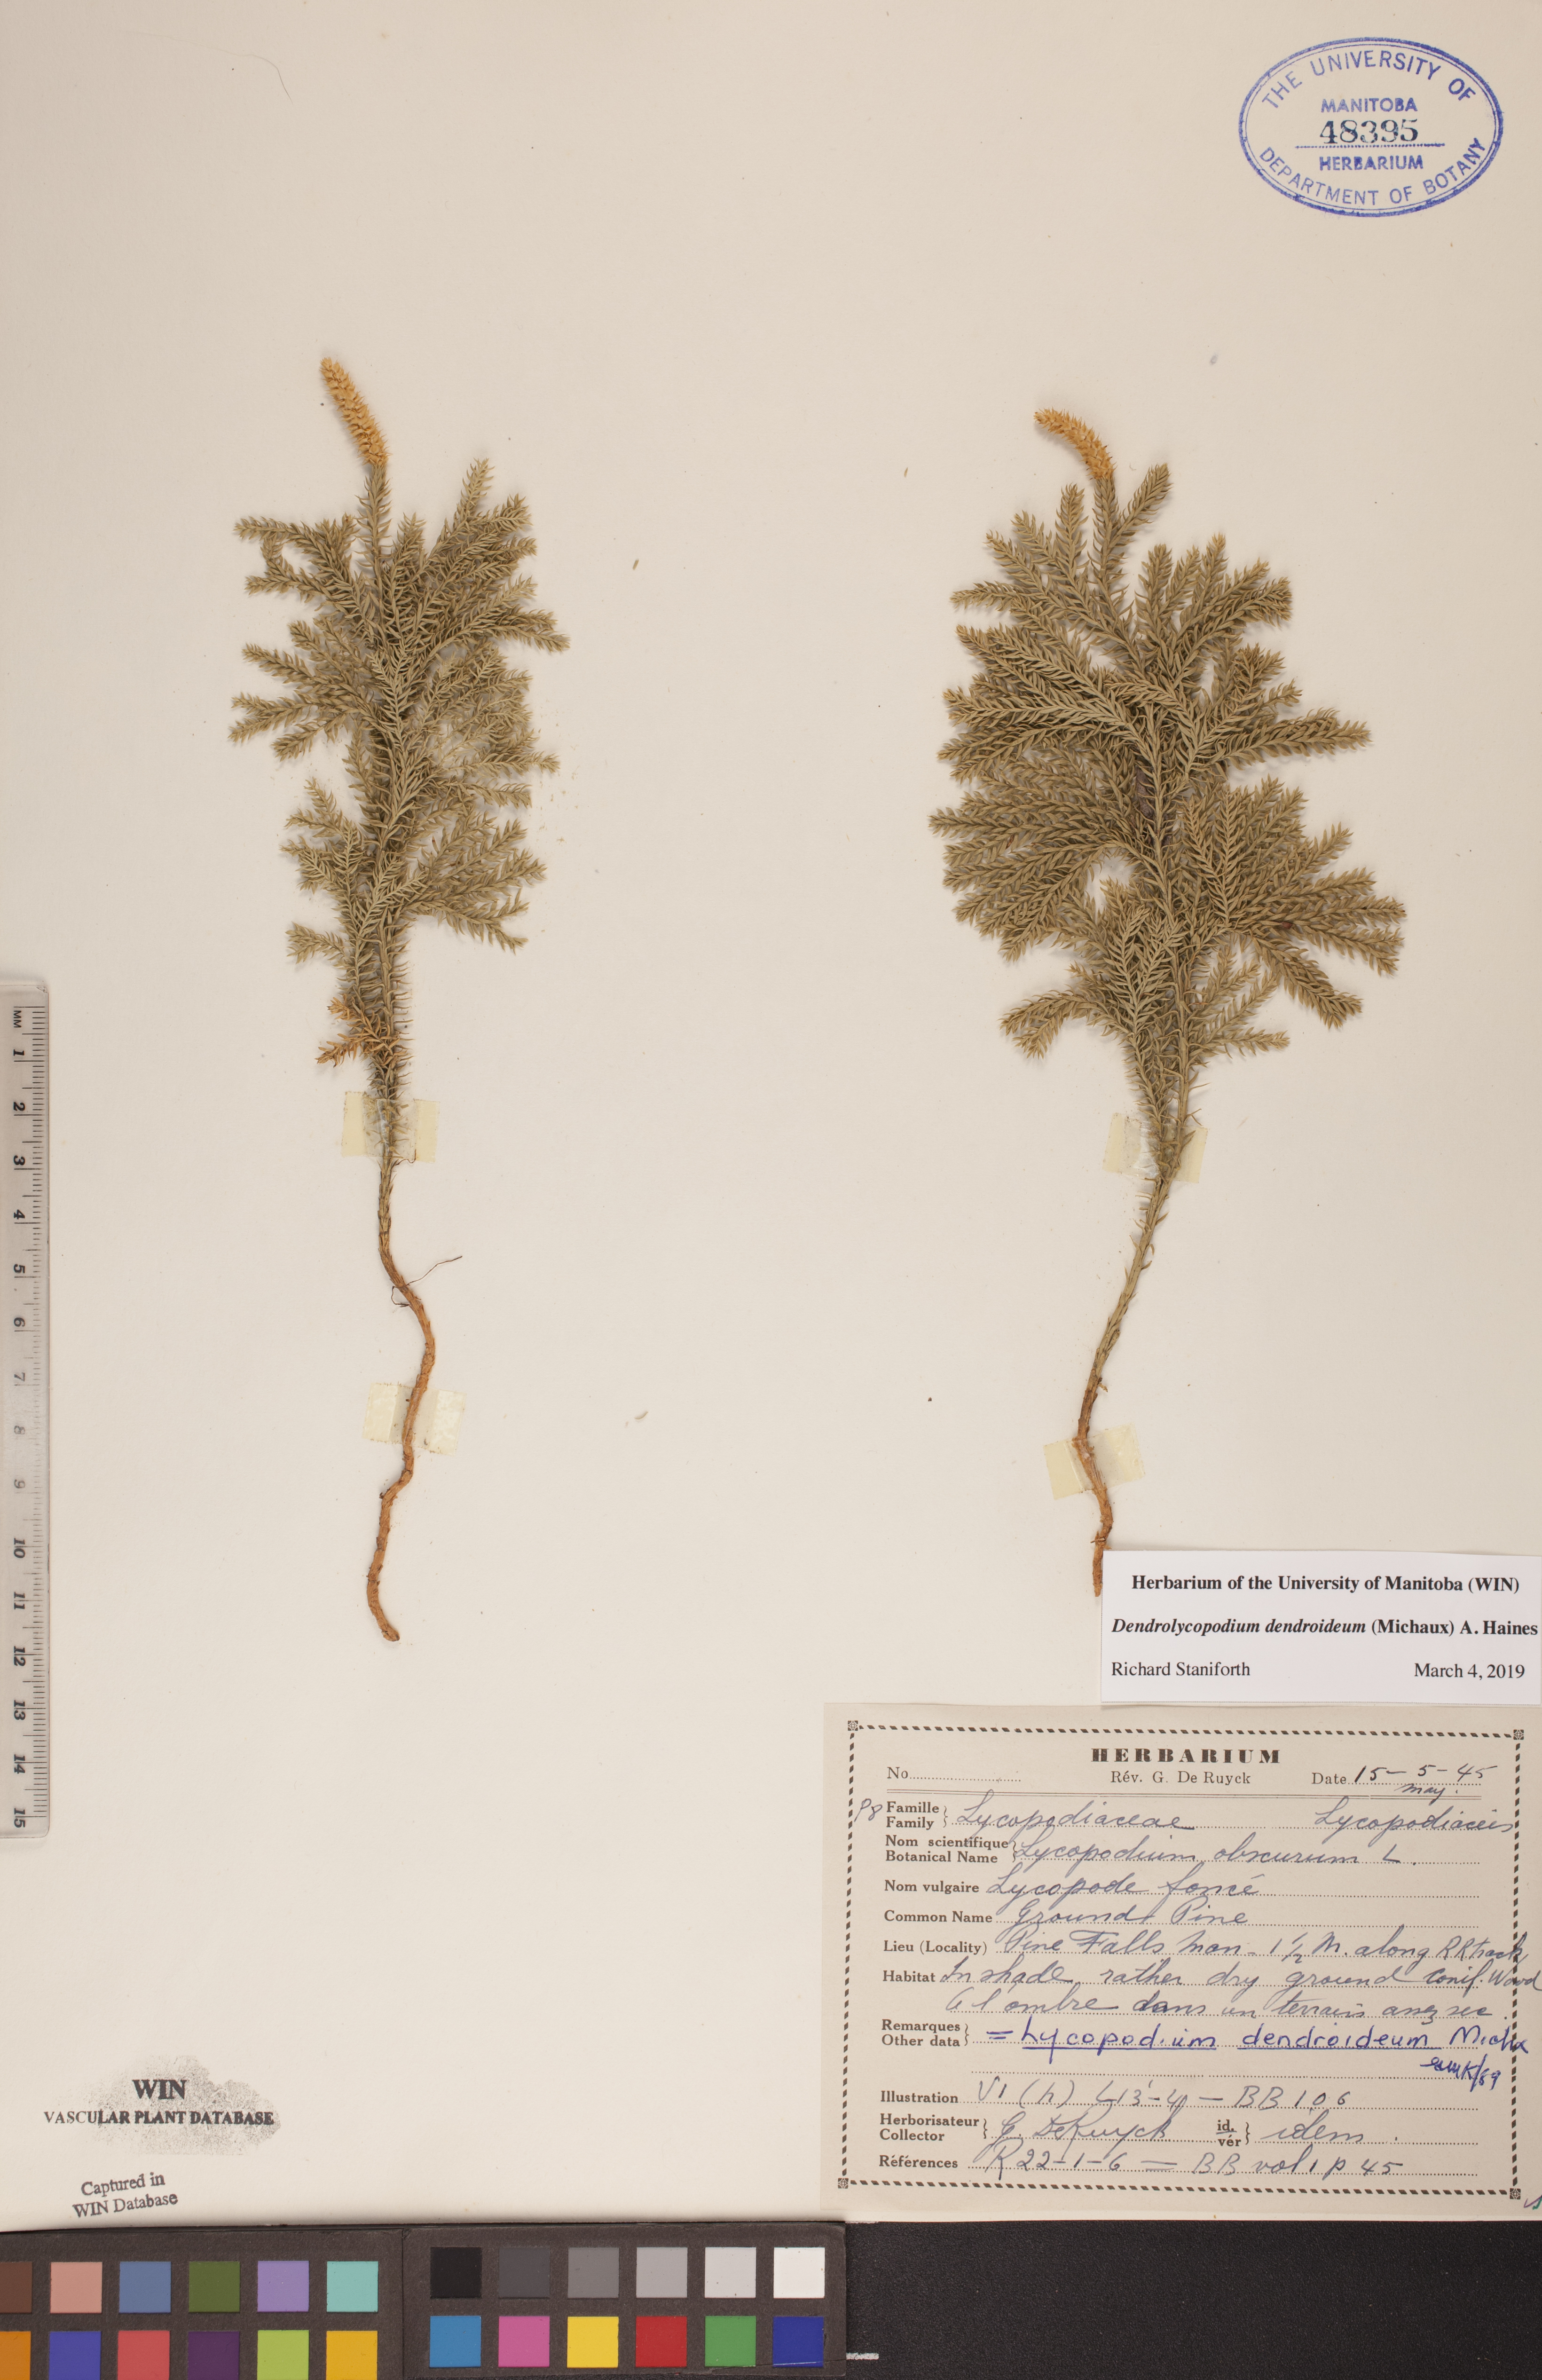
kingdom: Plantae
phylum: Tracheophyta
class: Lycopodiopsida
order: Lycopodiales
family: Lycopodiaceae
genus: Dendrolycopodium
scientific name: Dendrolycopodium dendroideum
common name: Northern tree-clubmoss
